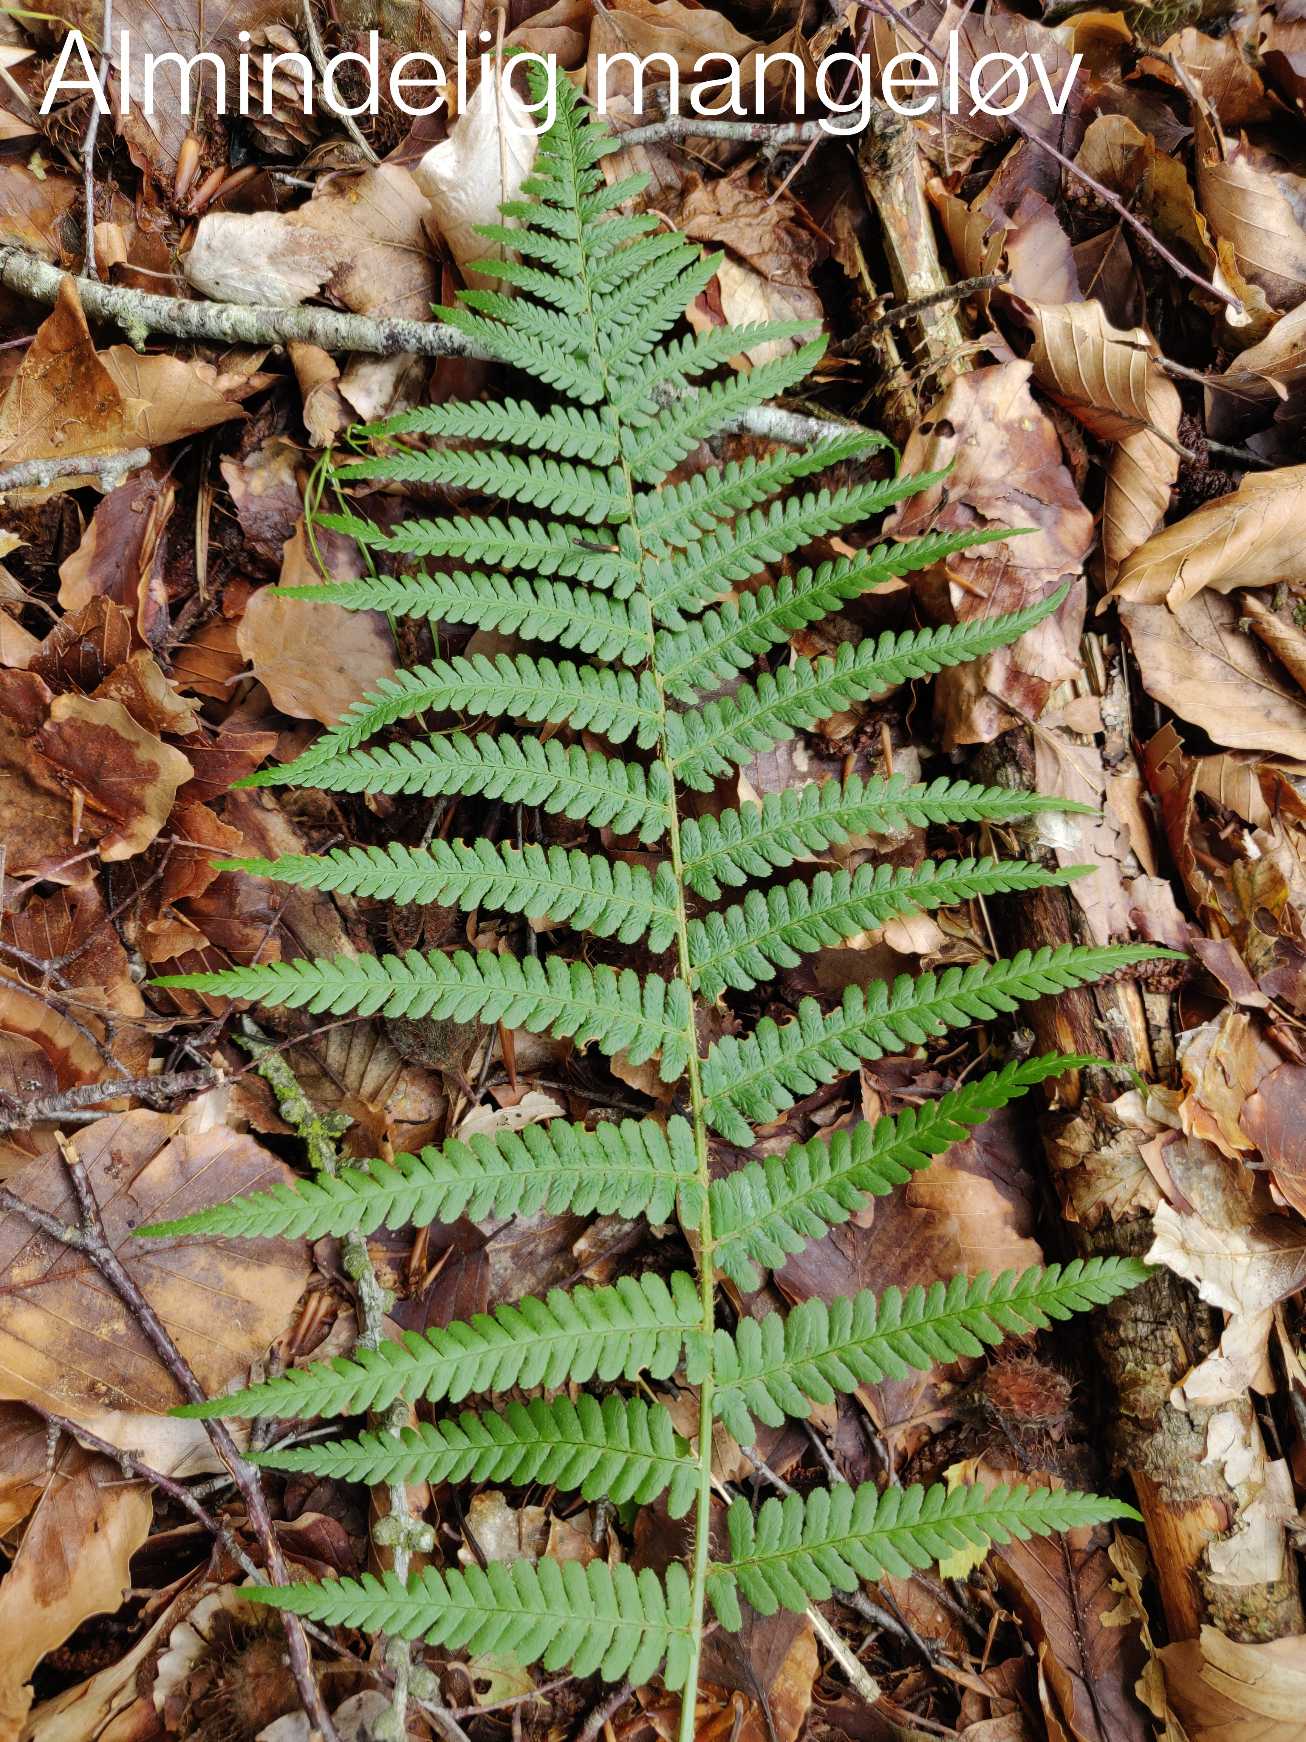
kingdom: Plantae
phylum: Tracheophyta
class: Polypodiopsida
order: Polypodiales
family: Dryopteridaceae
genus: Dryopteris
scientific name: Dryopteris filix-mas
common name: Almindelig mangeløv
